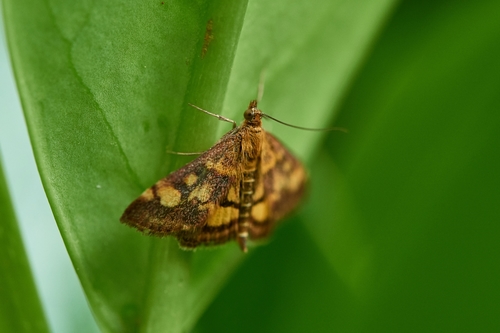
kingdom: Animalia
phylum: Arthropoda
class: Insecta
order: Lepidoptera
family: Crambidae
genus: Pyrausta
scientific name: Pyrausta
